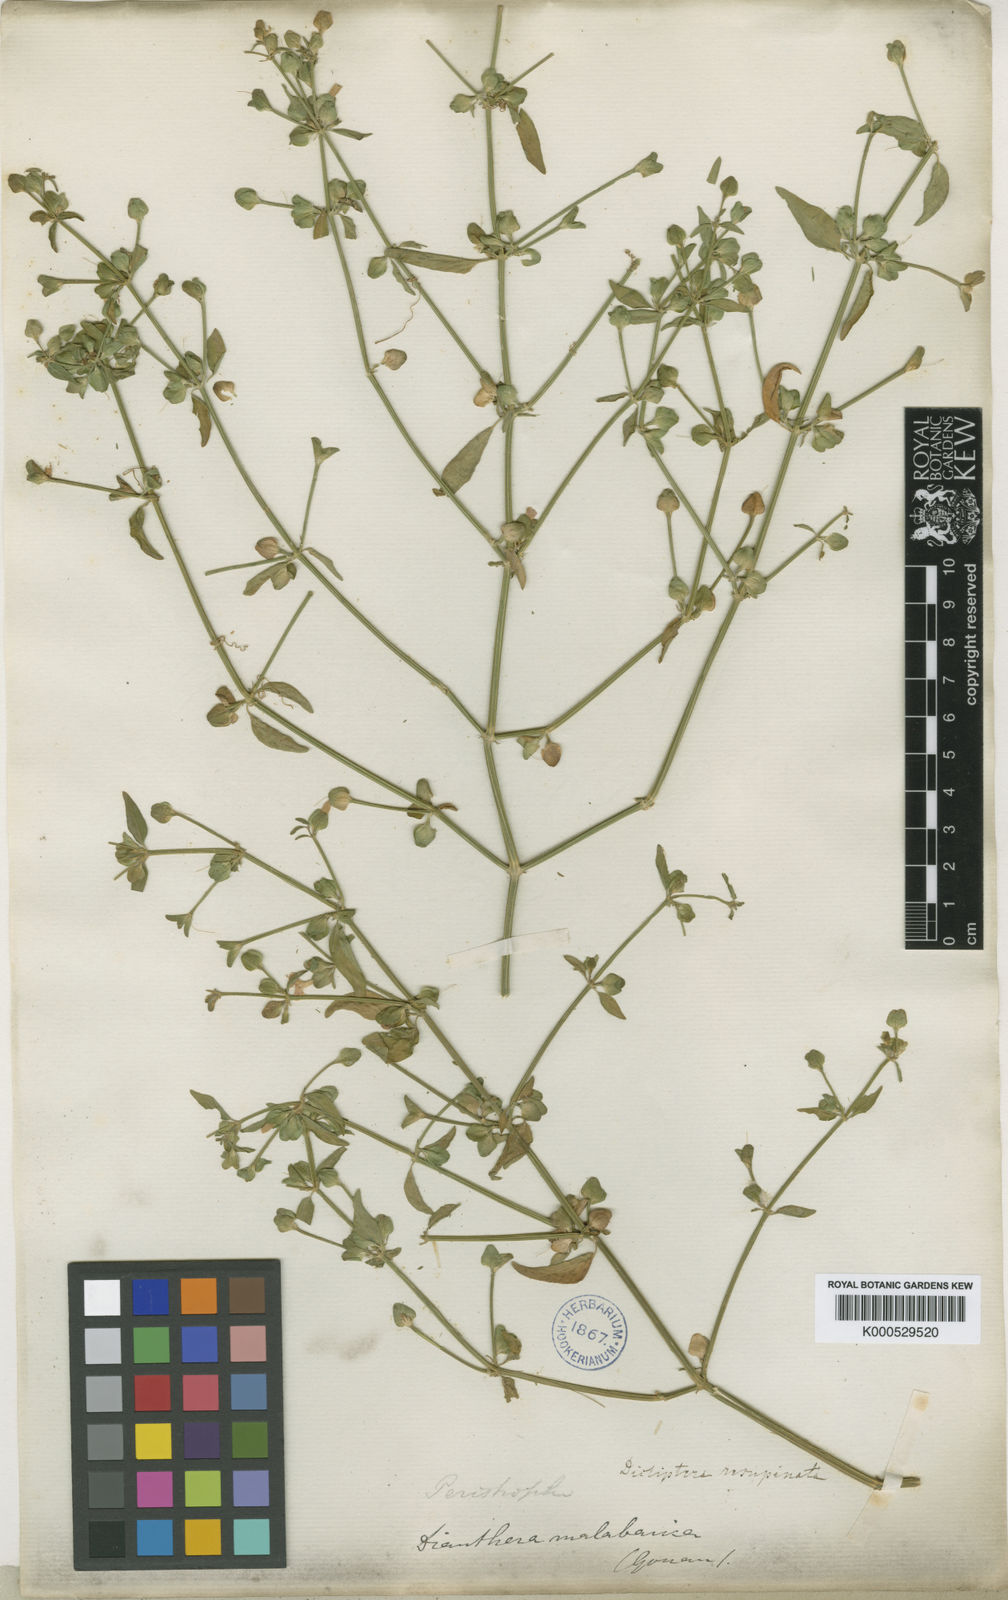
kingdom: Plantae
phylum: Tracheophyta
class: Magnoliopsida
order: Lamiales
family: Acanthaceae
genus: Dicliptera
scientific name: Dicliptera resupinata
